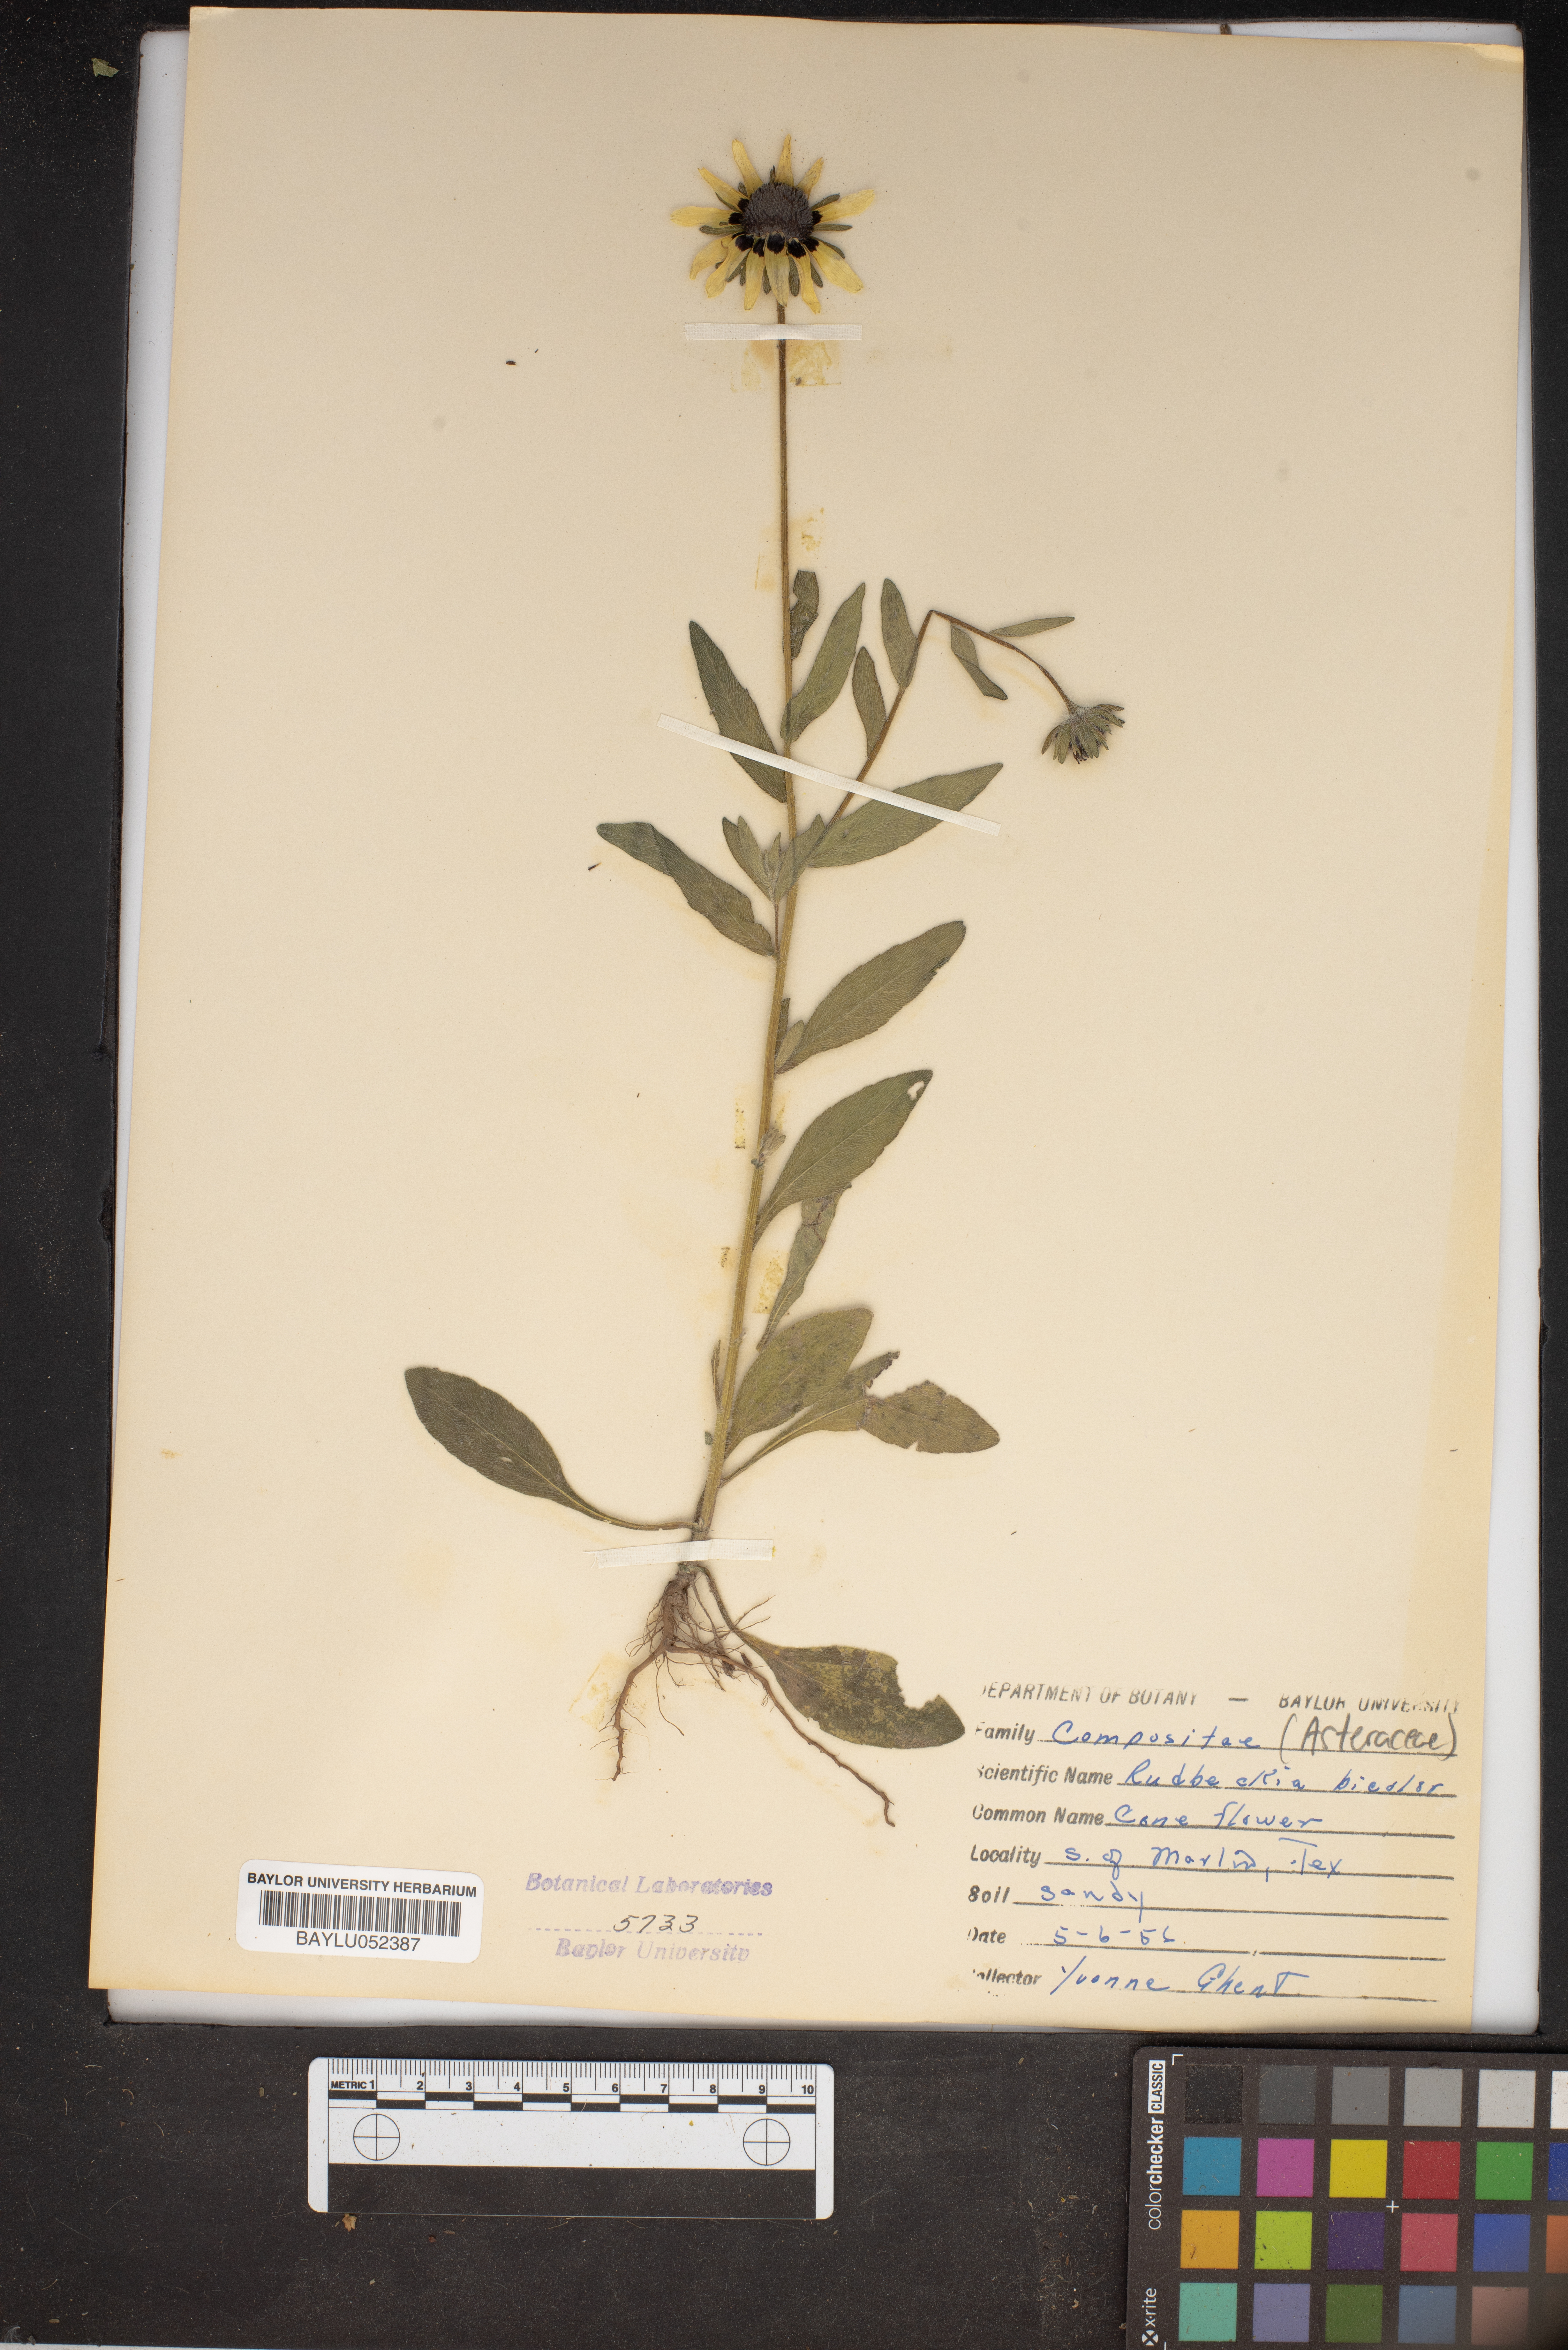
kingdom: Plantae
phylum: Tracheophyta
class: Magnoliopsida
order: Asterales
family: Asteraceae
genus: Rudbeckia
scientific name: Rudbeckia hirta
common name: Black-eyed-susan
